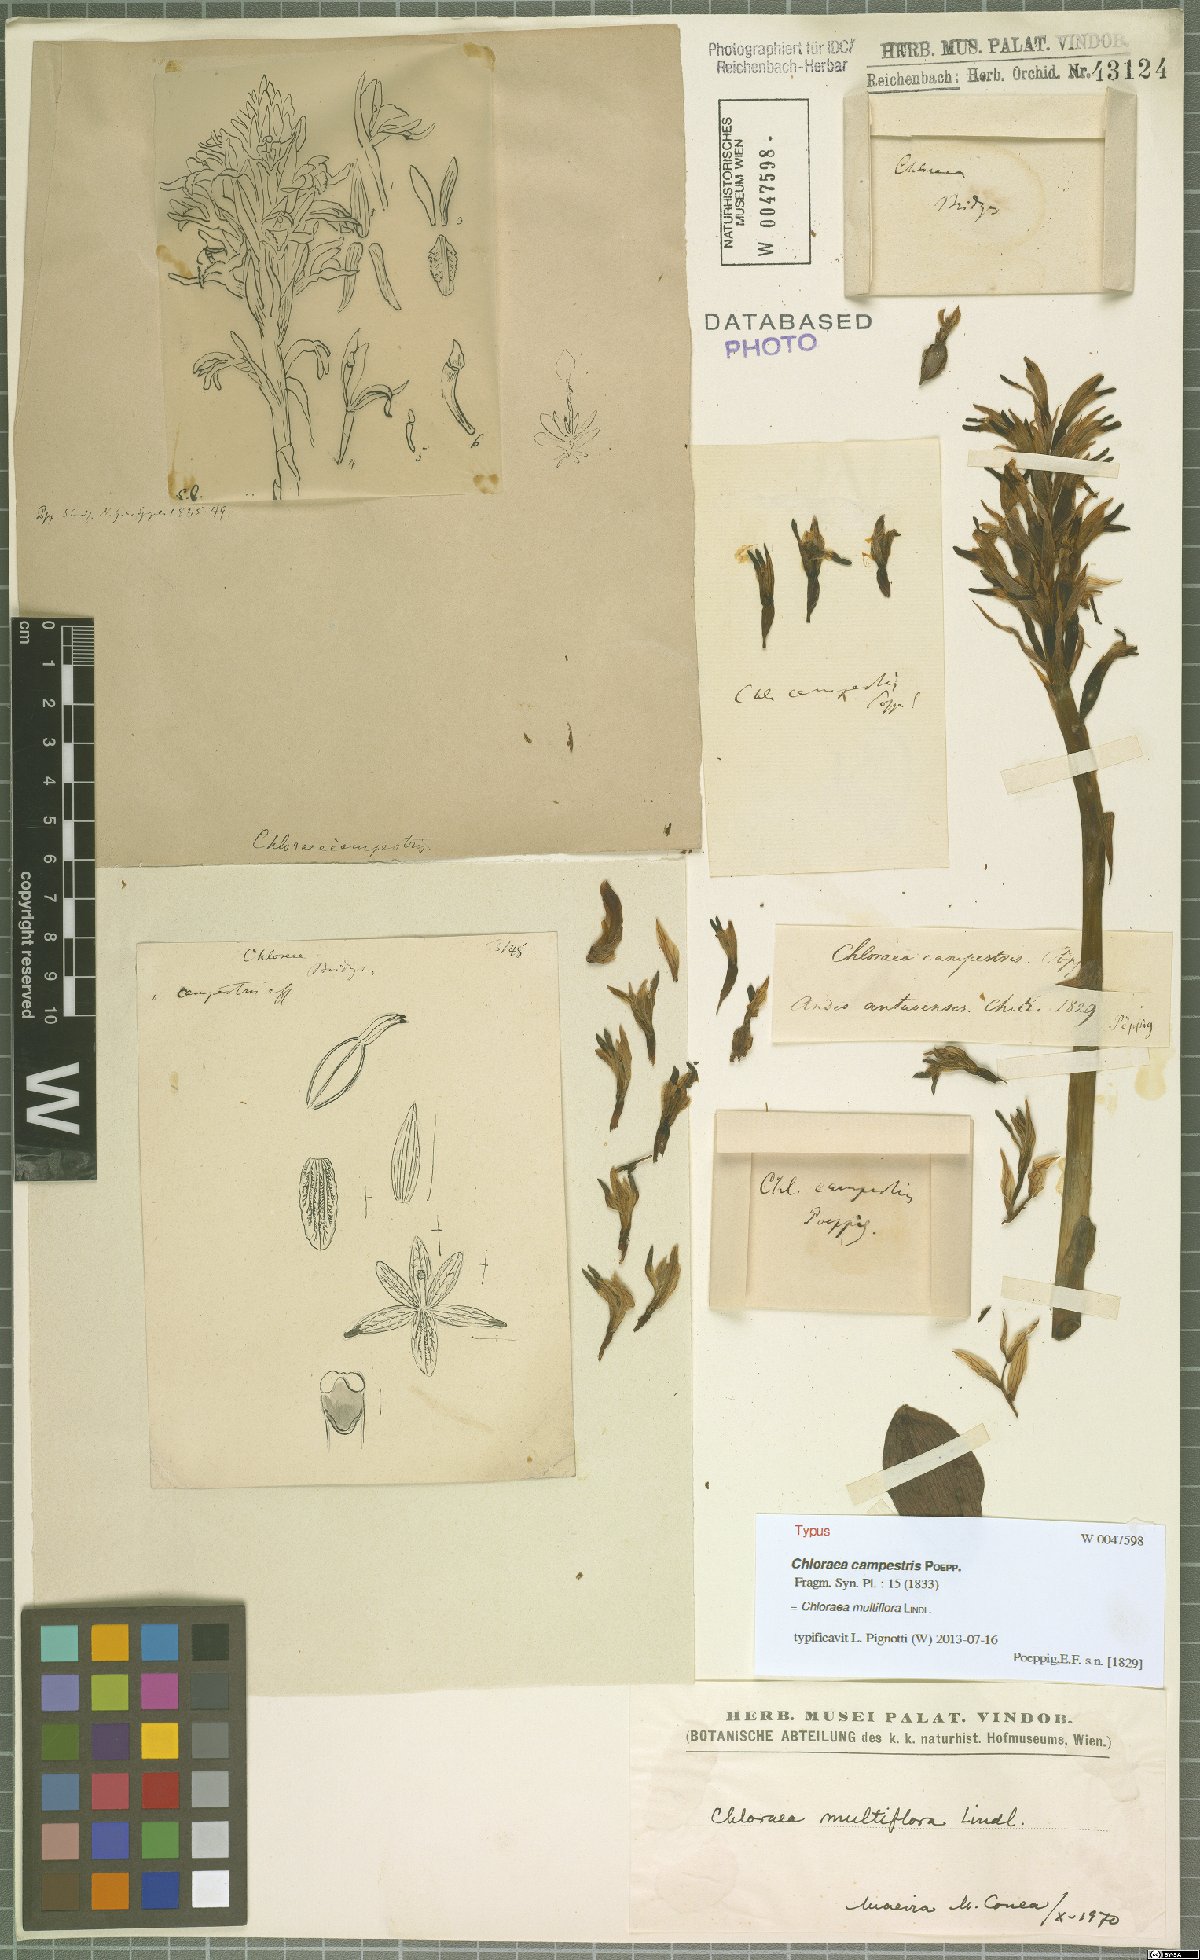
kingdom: Plantae
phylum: Tracheophyta
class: Liliopsida
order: Asparagales
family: Orchidaceae
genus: Chloraea
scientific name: Chloraea multiflora
